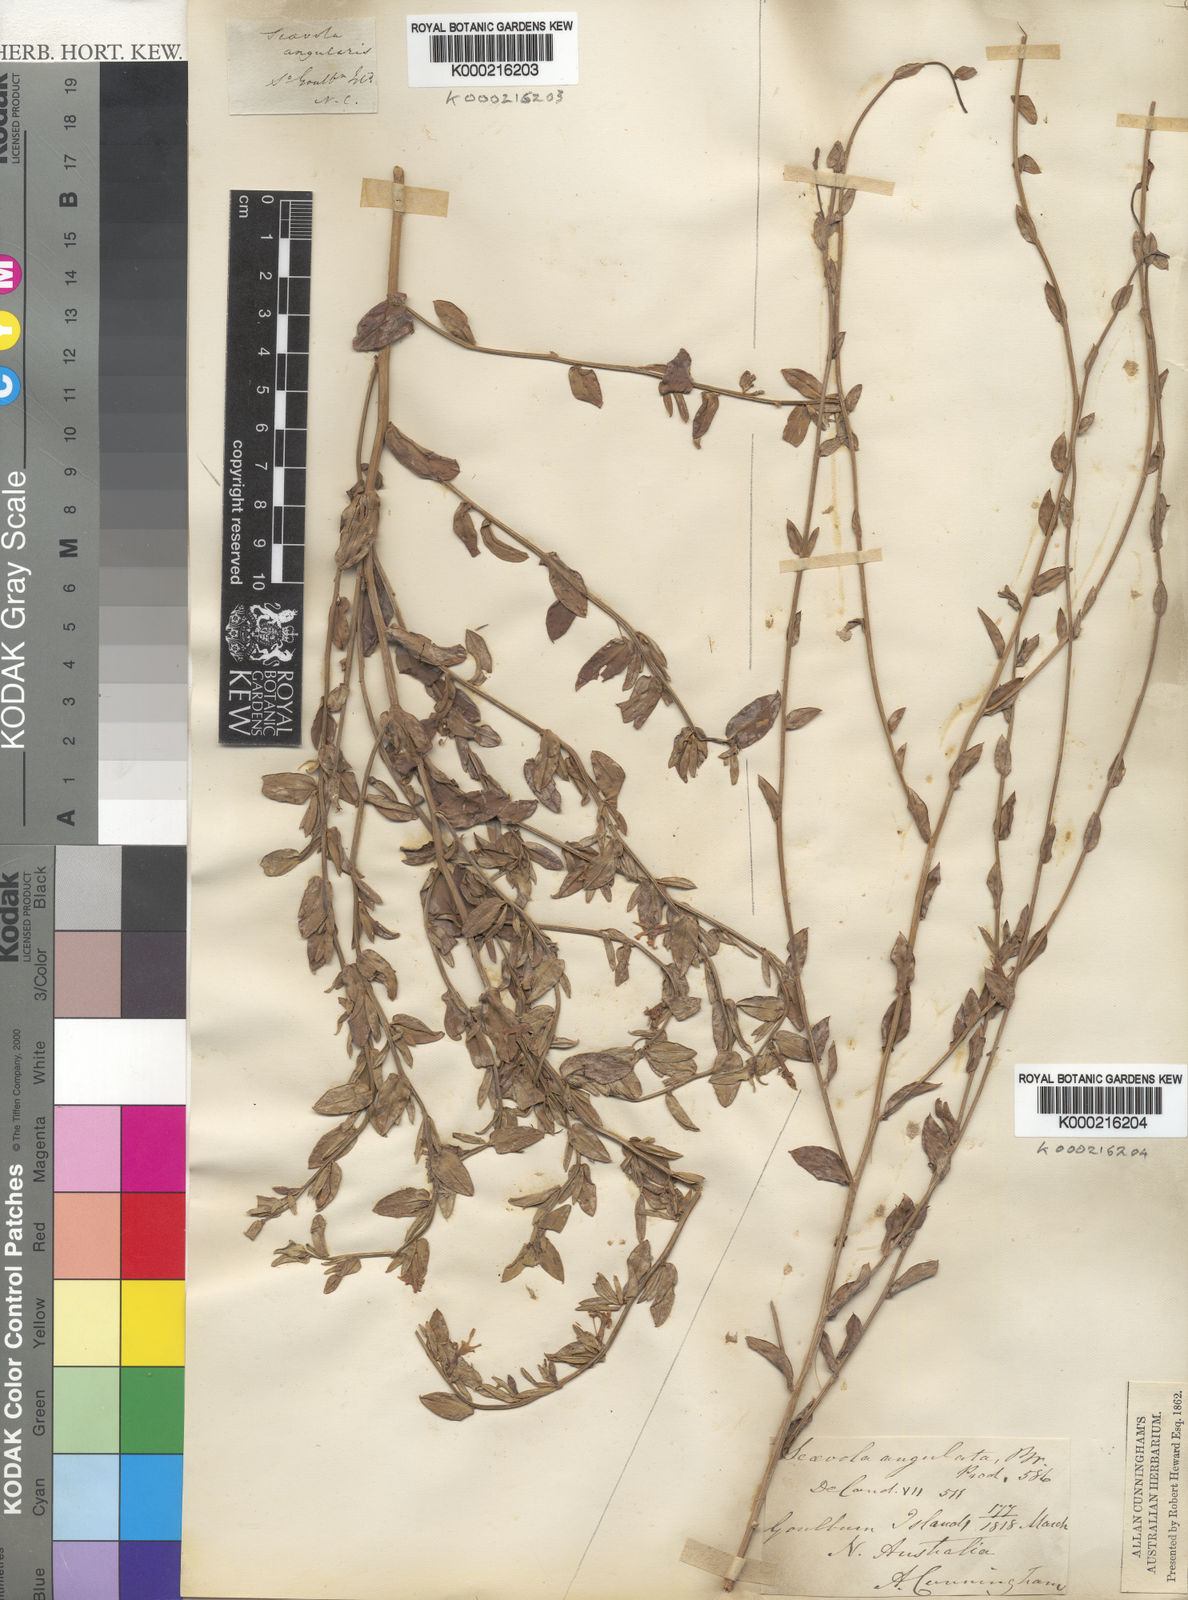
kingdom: Plantae
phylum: Tracheophyta
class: Magnoliopsida
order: Asterales
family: Goodeniaceae
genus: Scaevola
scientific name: Scaevola angulata
